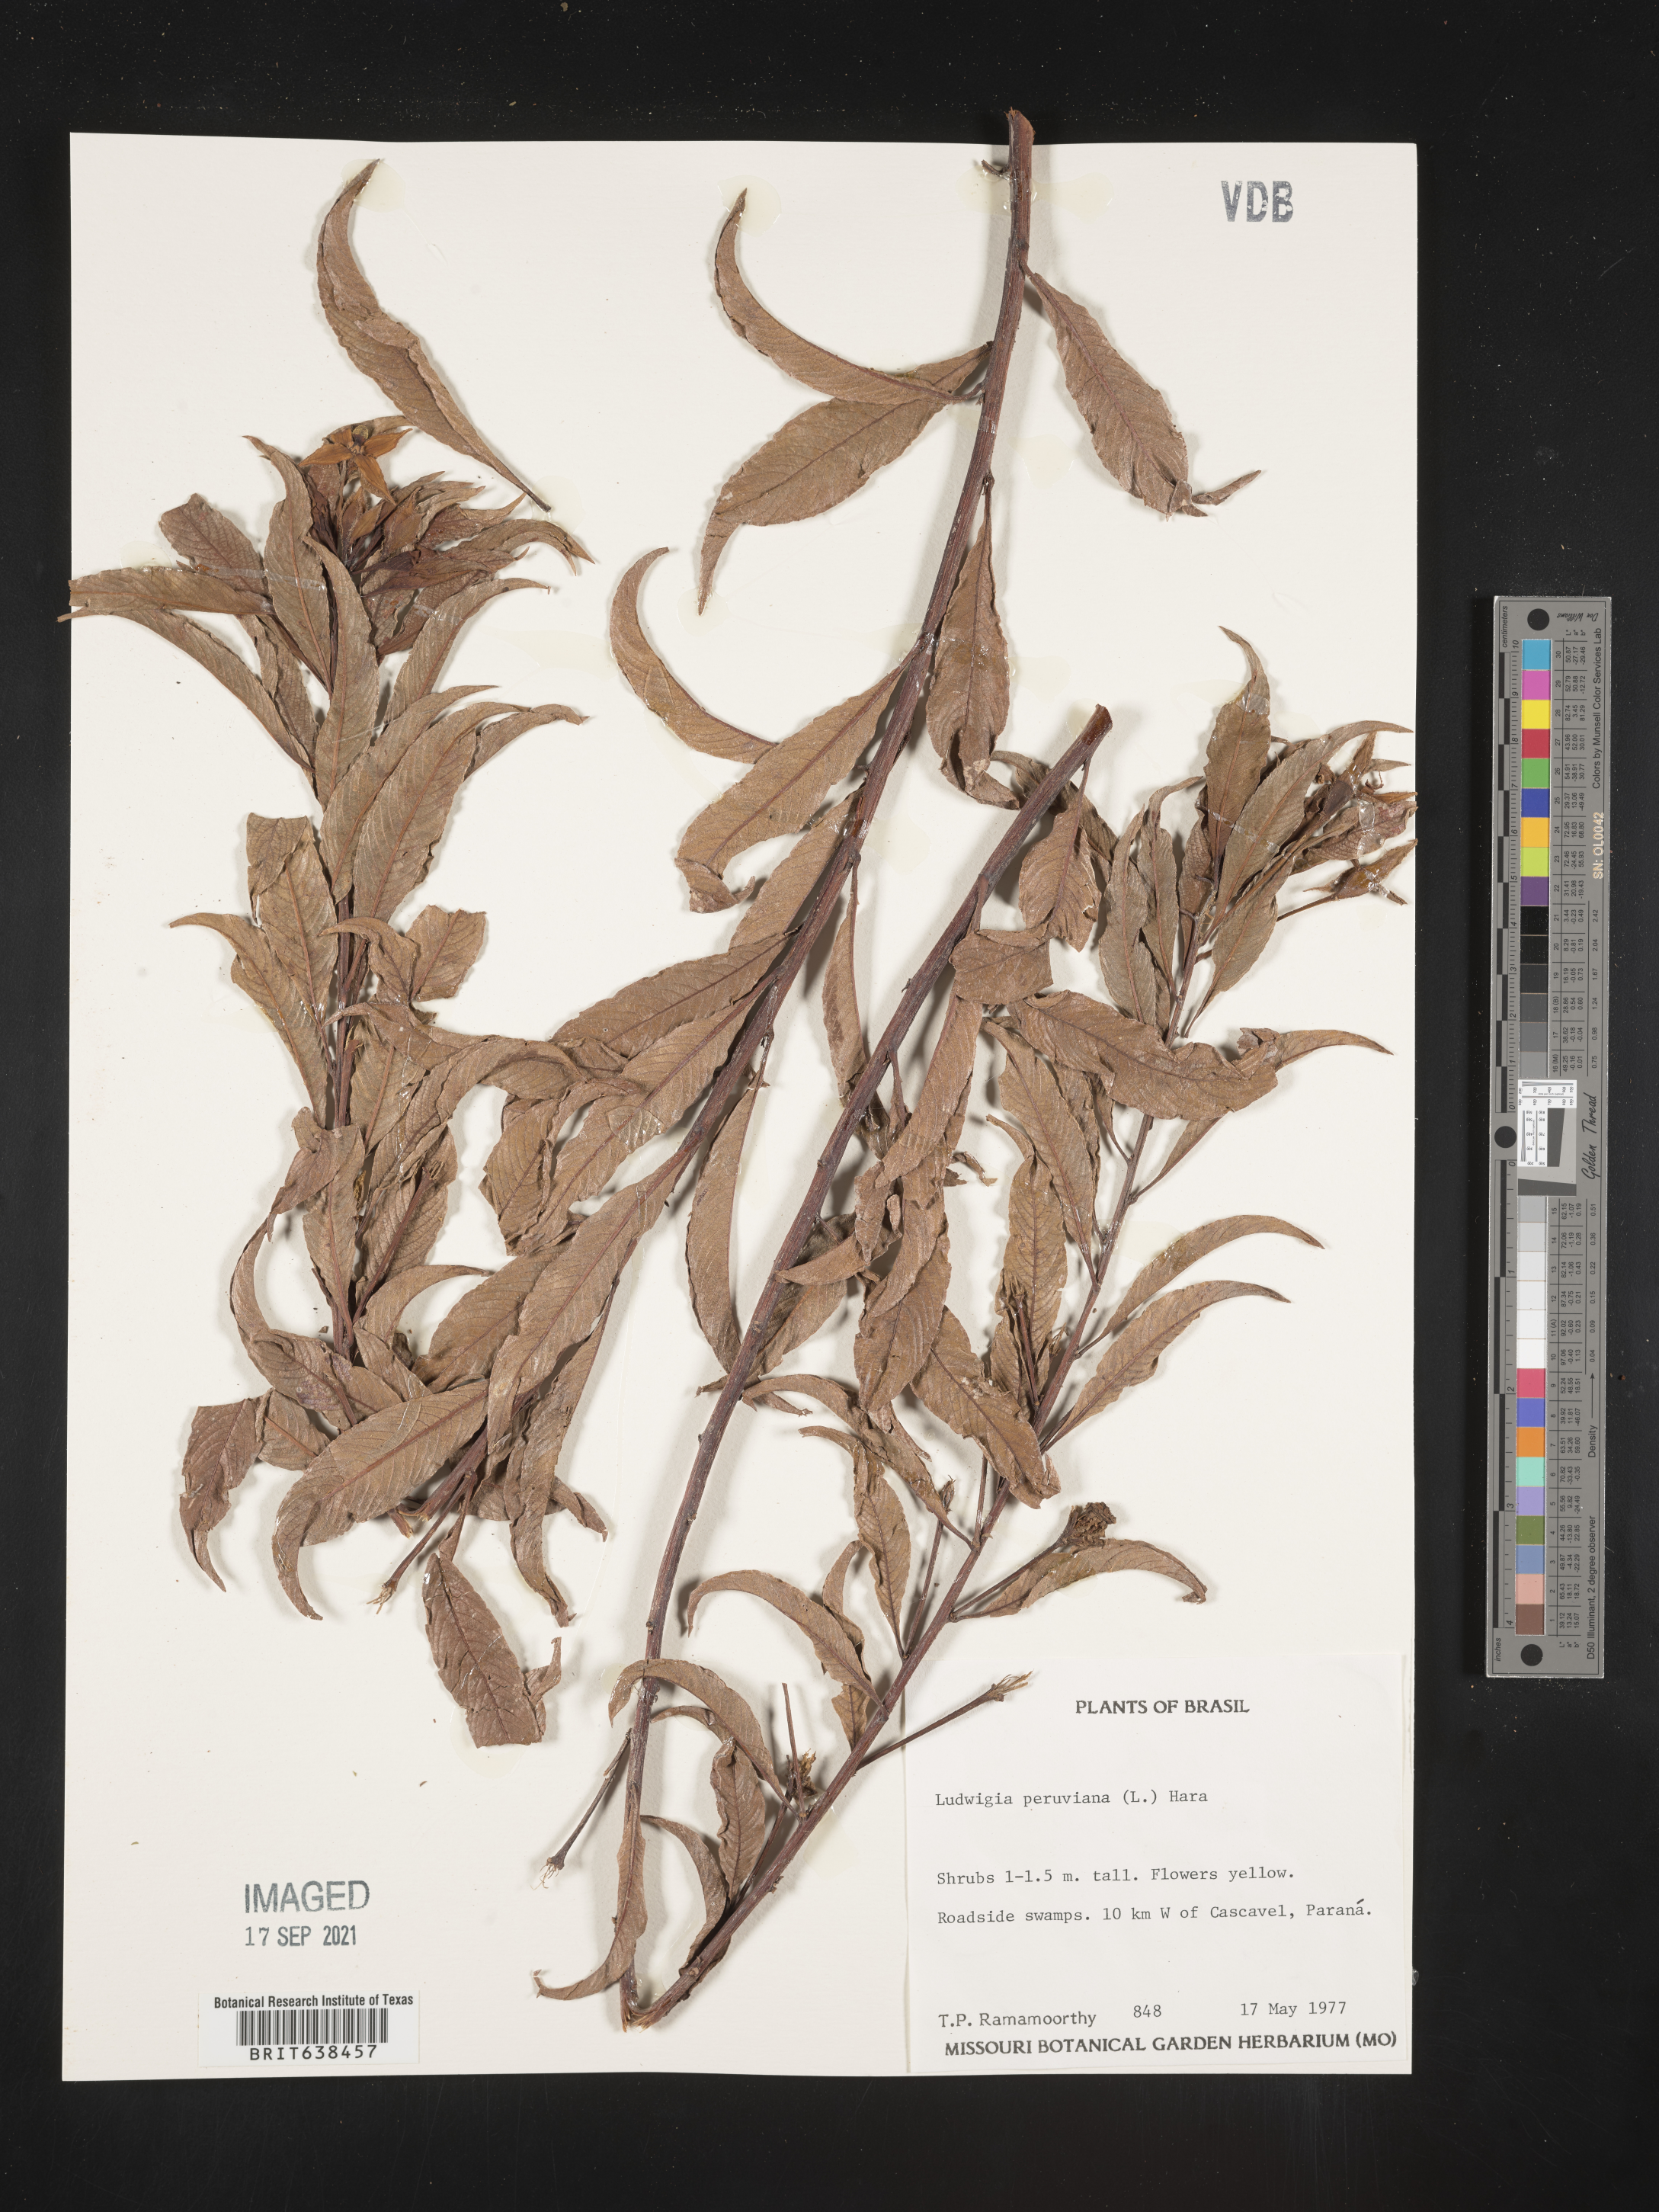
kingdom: Plantae
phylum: Tracheophyta
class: Magnoliopsida
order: Myrtales
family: Onagraceae
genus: Ludwigia
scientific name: Ludwigia
